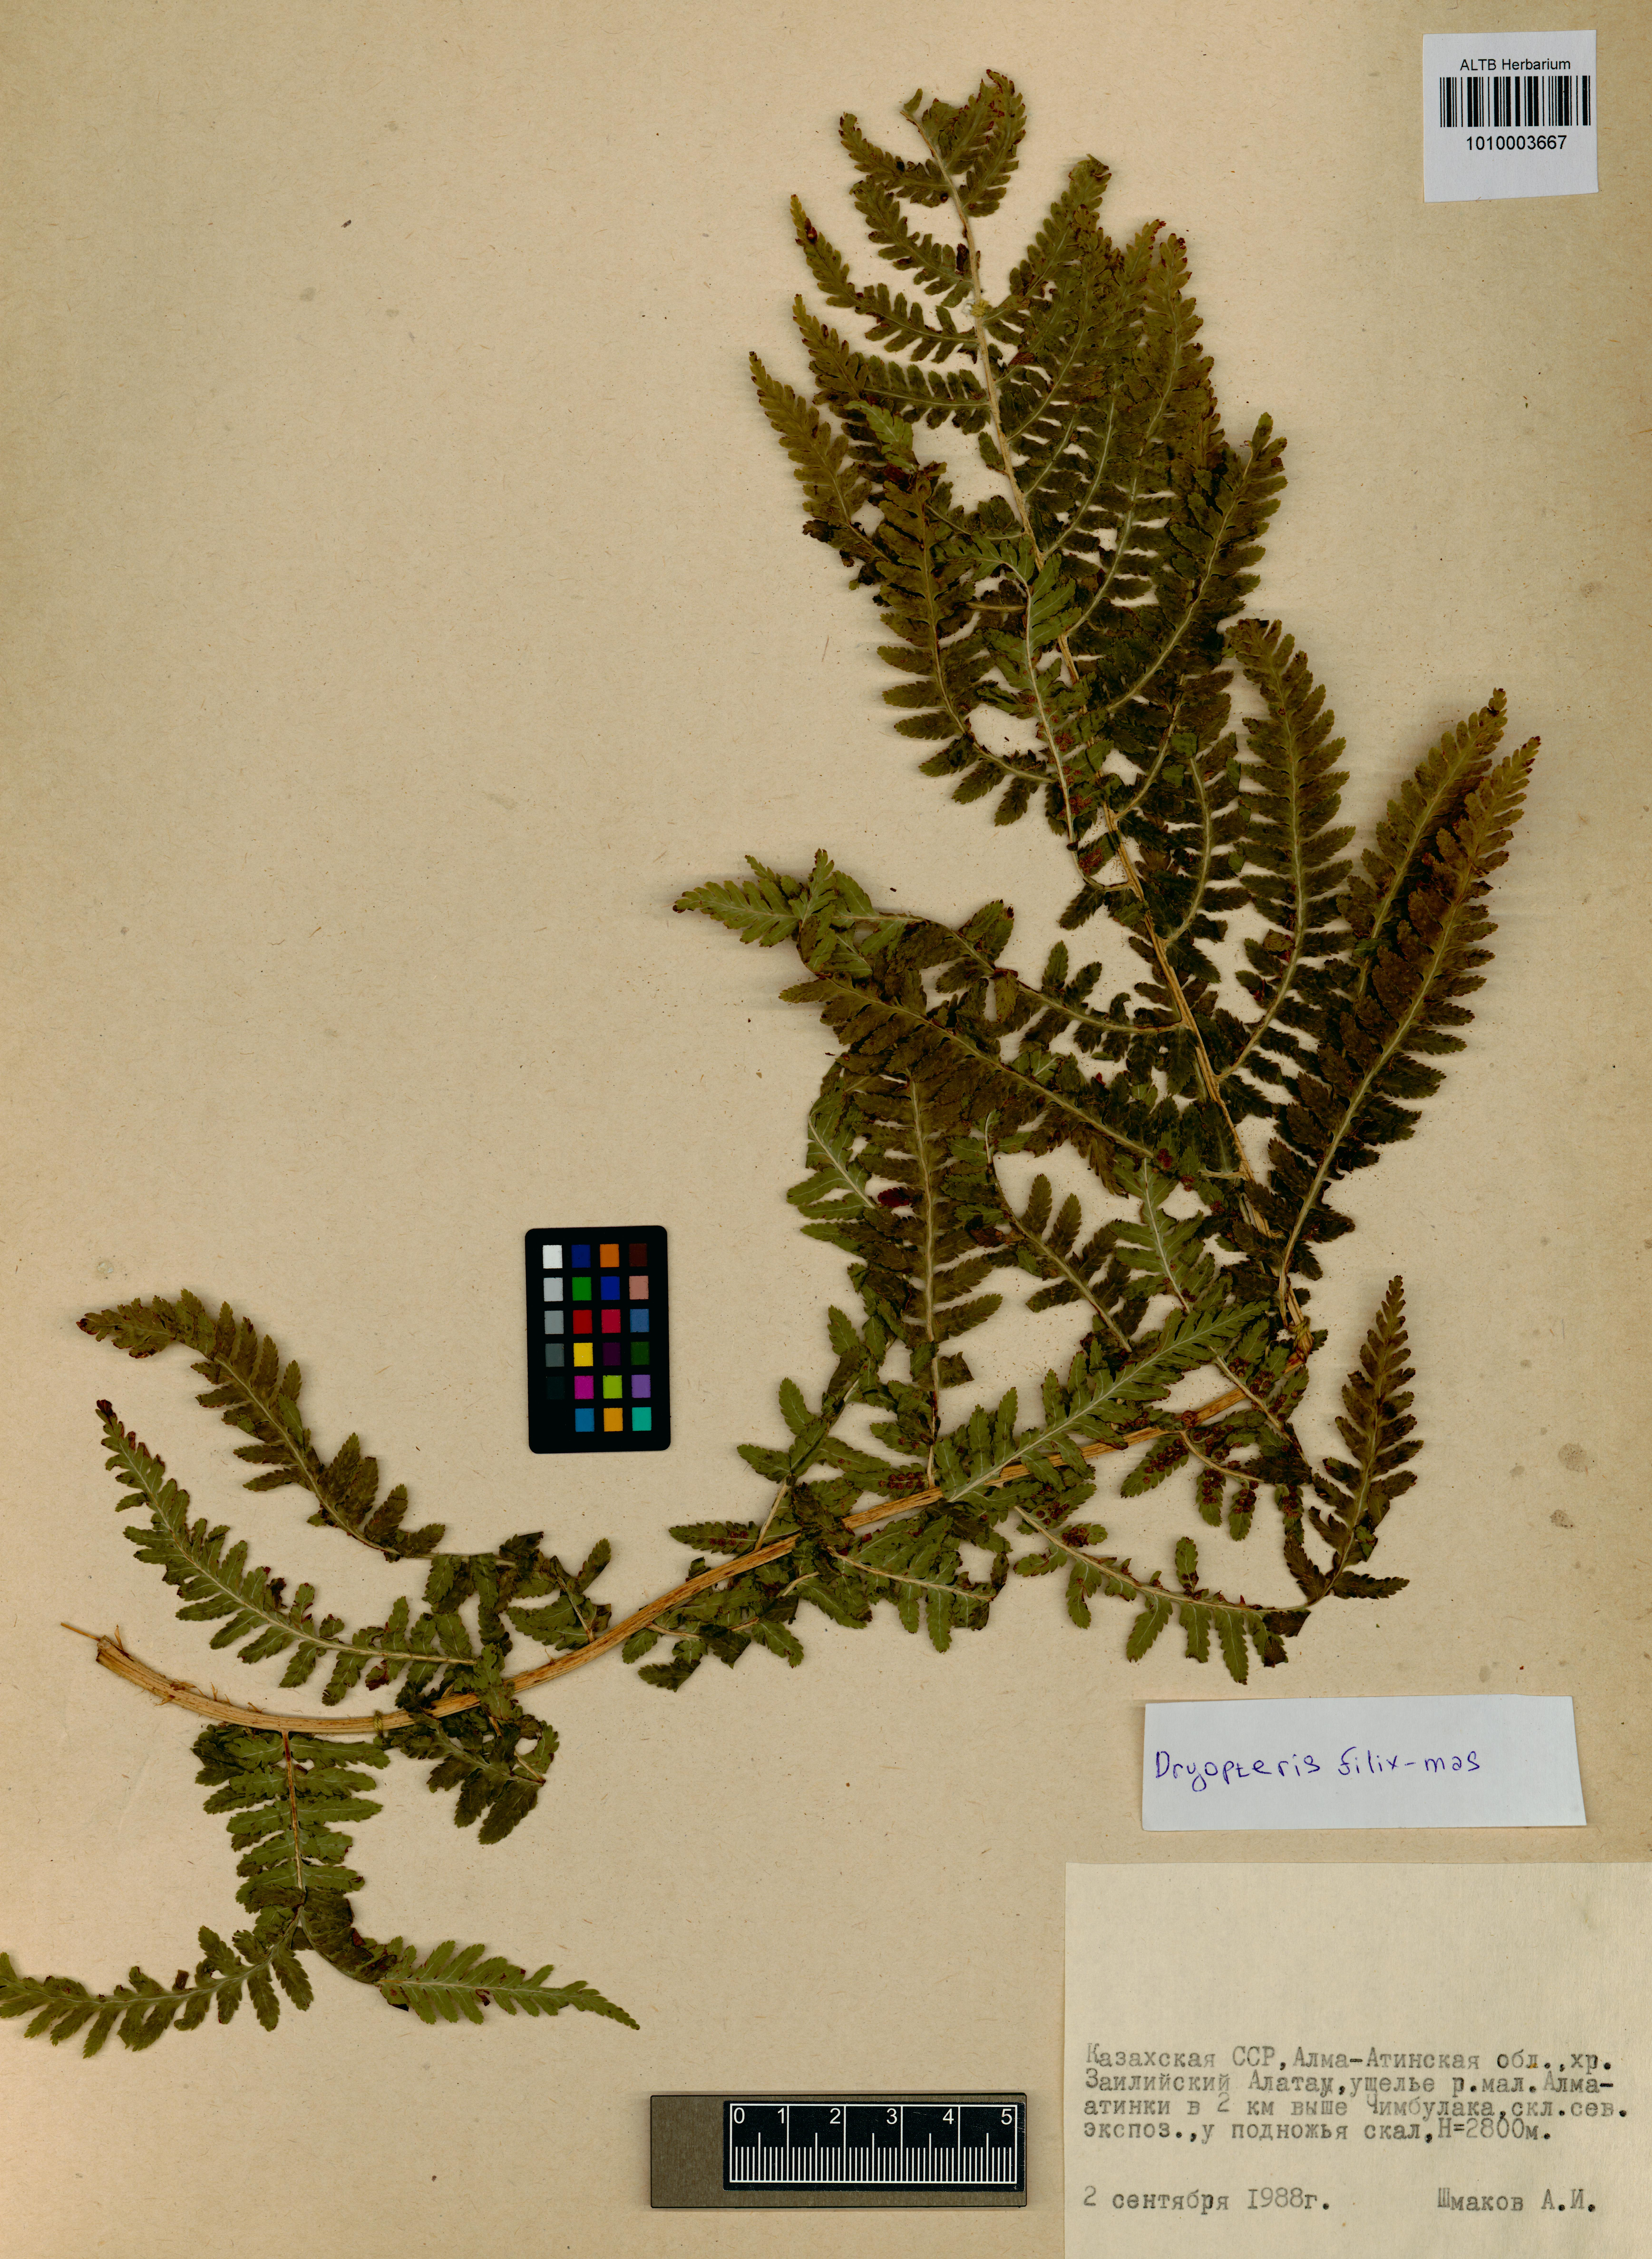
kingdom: Plantae
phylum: Tracheophyta
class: Polypodiopsida
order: Polypodiales
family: Dryopteridaceae
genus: Dryopteris
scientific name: Dryopteris filix-mas
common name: Male fern
